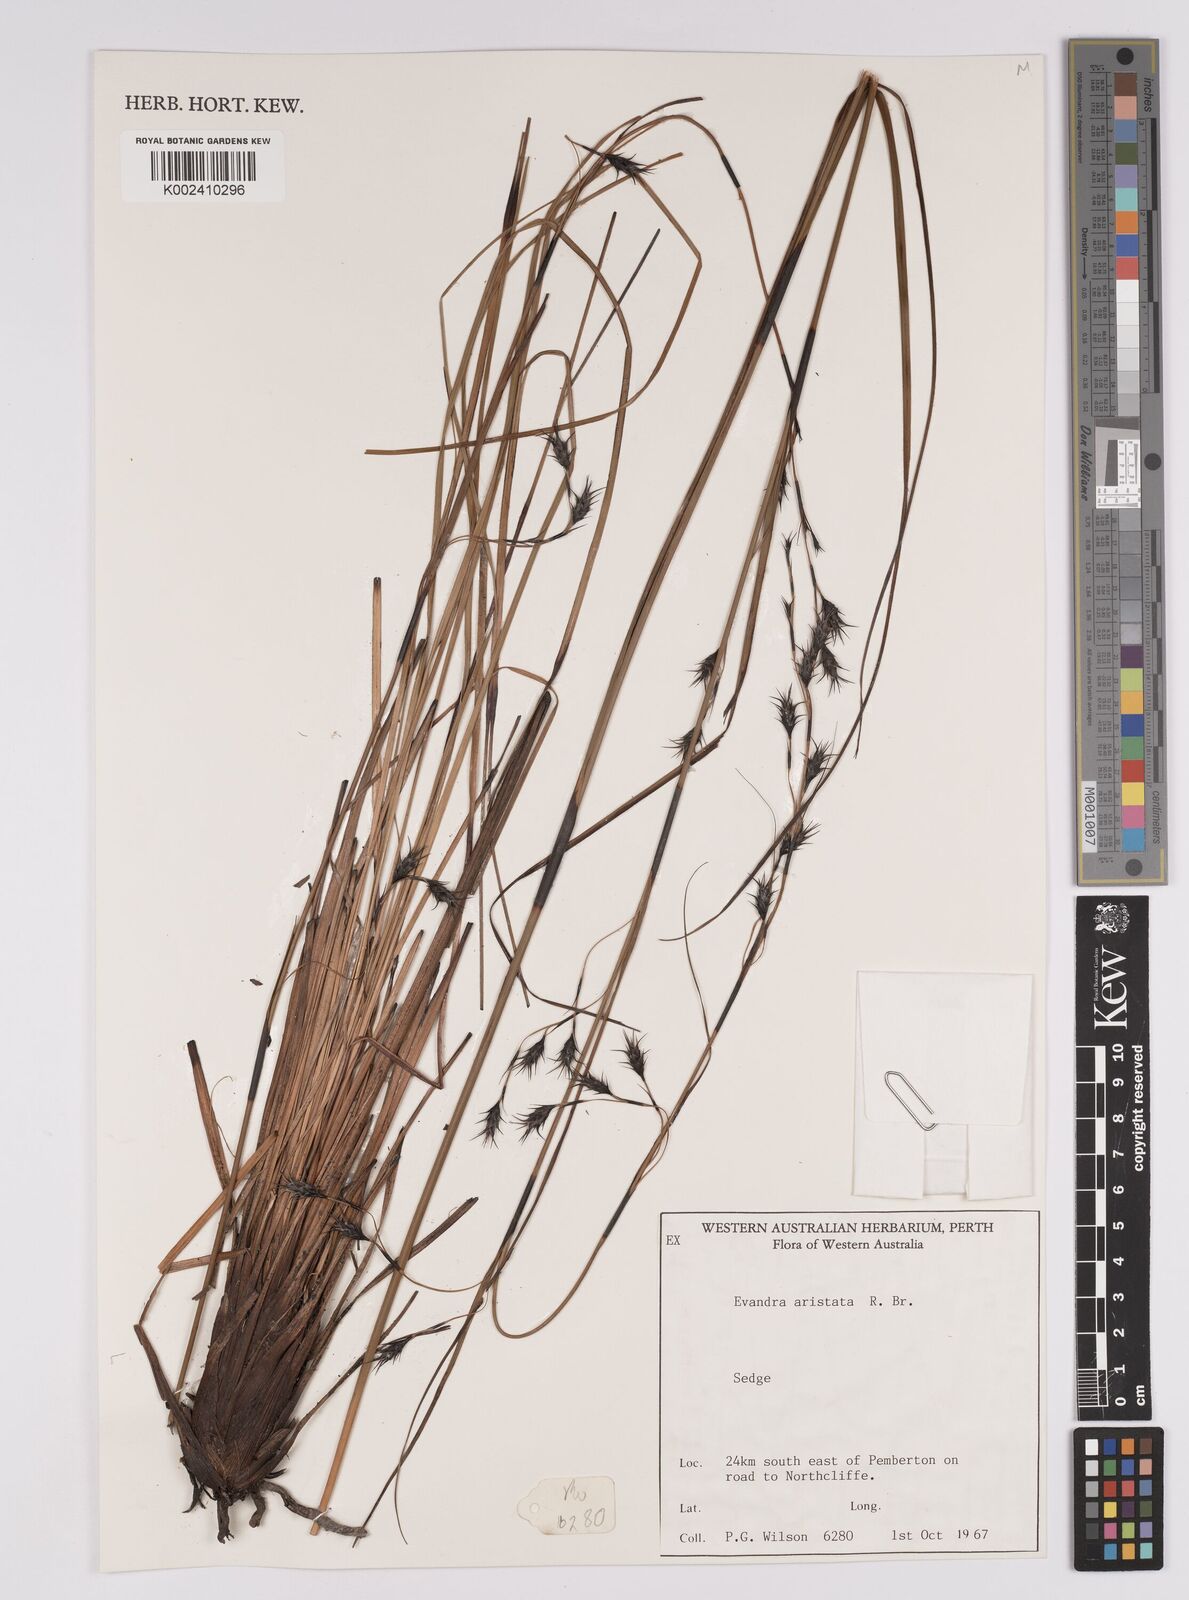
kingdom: Plantae
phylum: Tracheophyta
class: Liliopsida
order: Poales
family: Cyperaceae
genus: Evandra
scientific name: Evandra aristata
